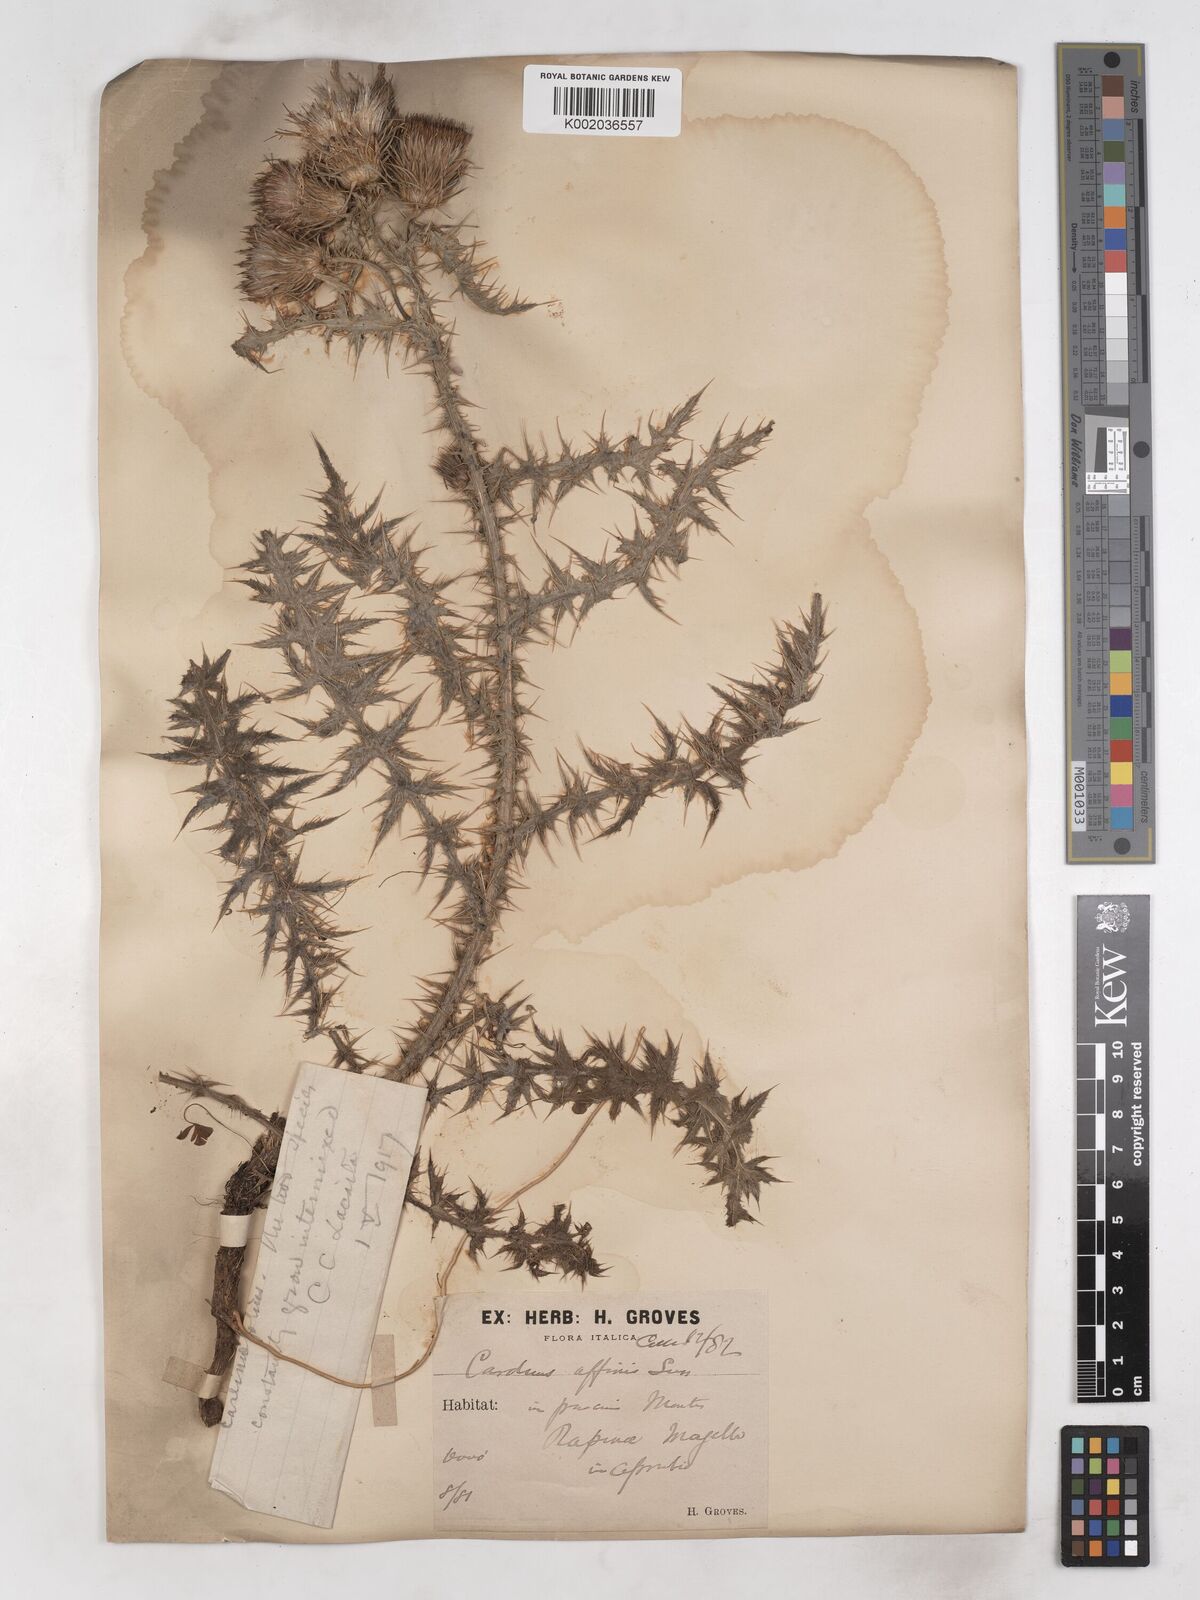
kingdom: Plantae
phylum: Tracheophyta
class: Magnoliopsida
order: Asterales
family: Asteraceae
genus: Carduus
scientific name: Carduus affinis
